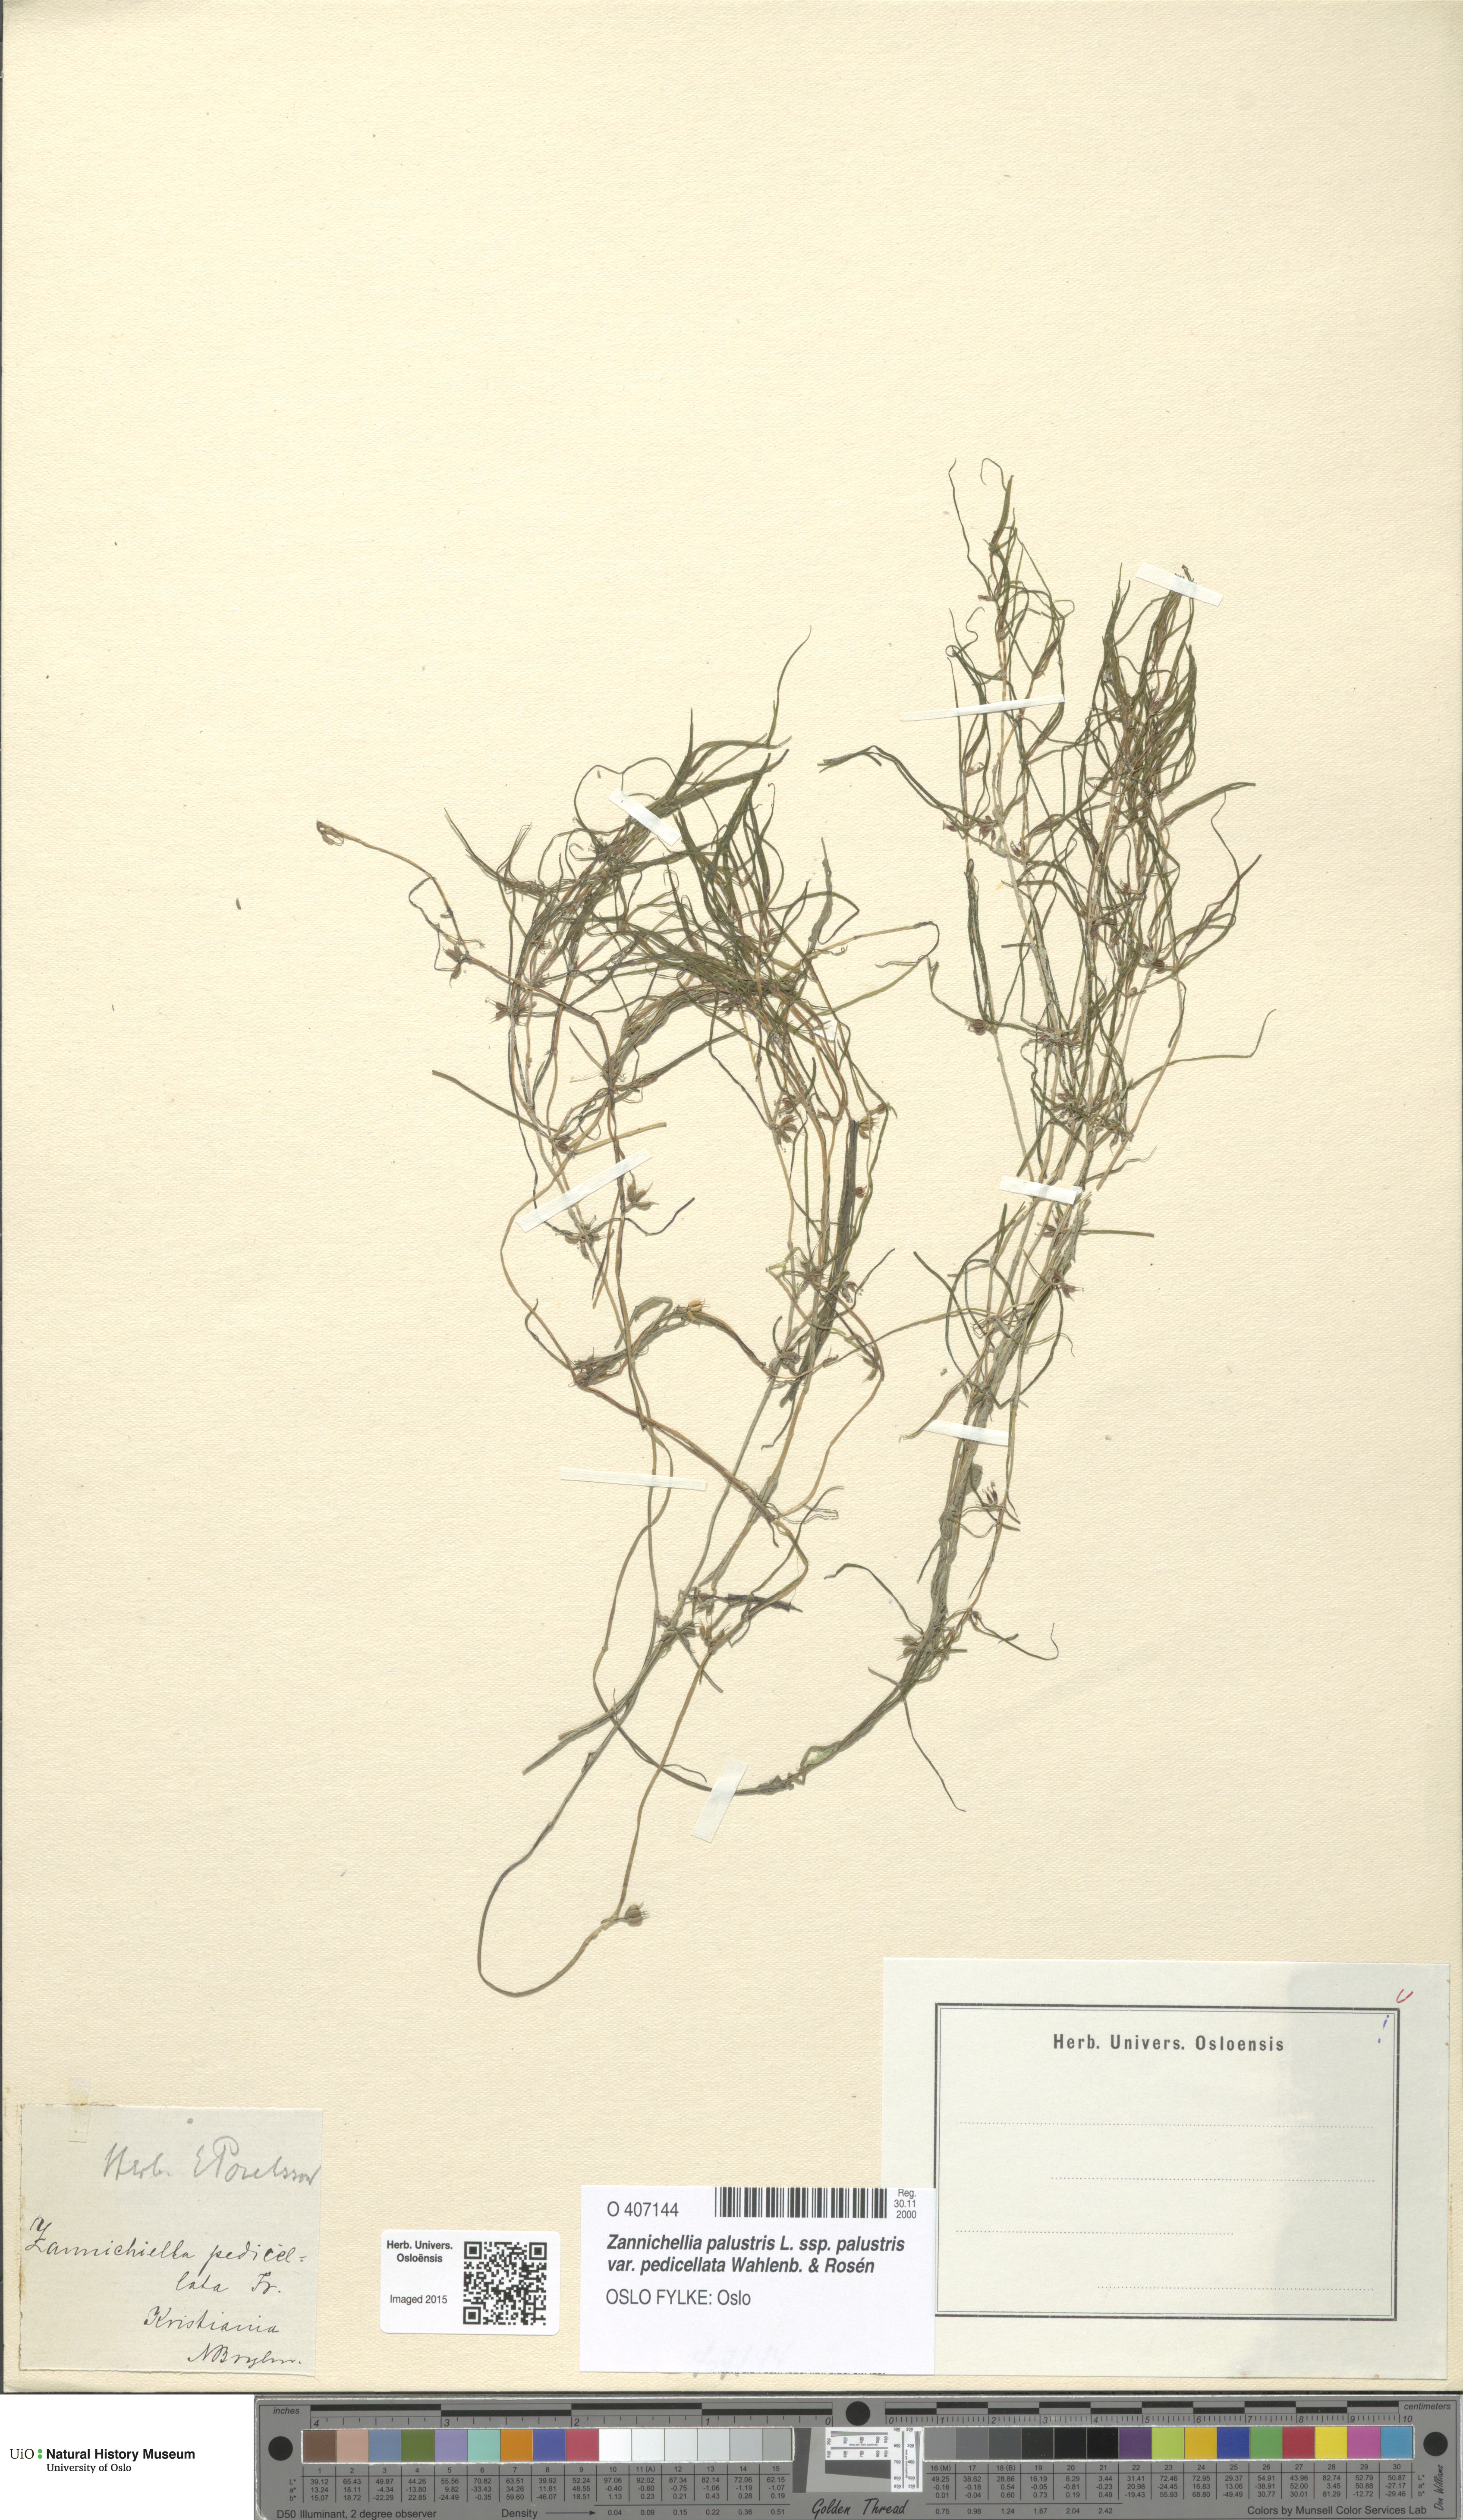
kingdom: Plantae
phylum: Tracheophyta
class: Liliopsida
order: Alismatales
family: Potamogetonaceae
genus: Zannichellia
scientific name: Zannichellia palustris
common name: Horned pondweed
